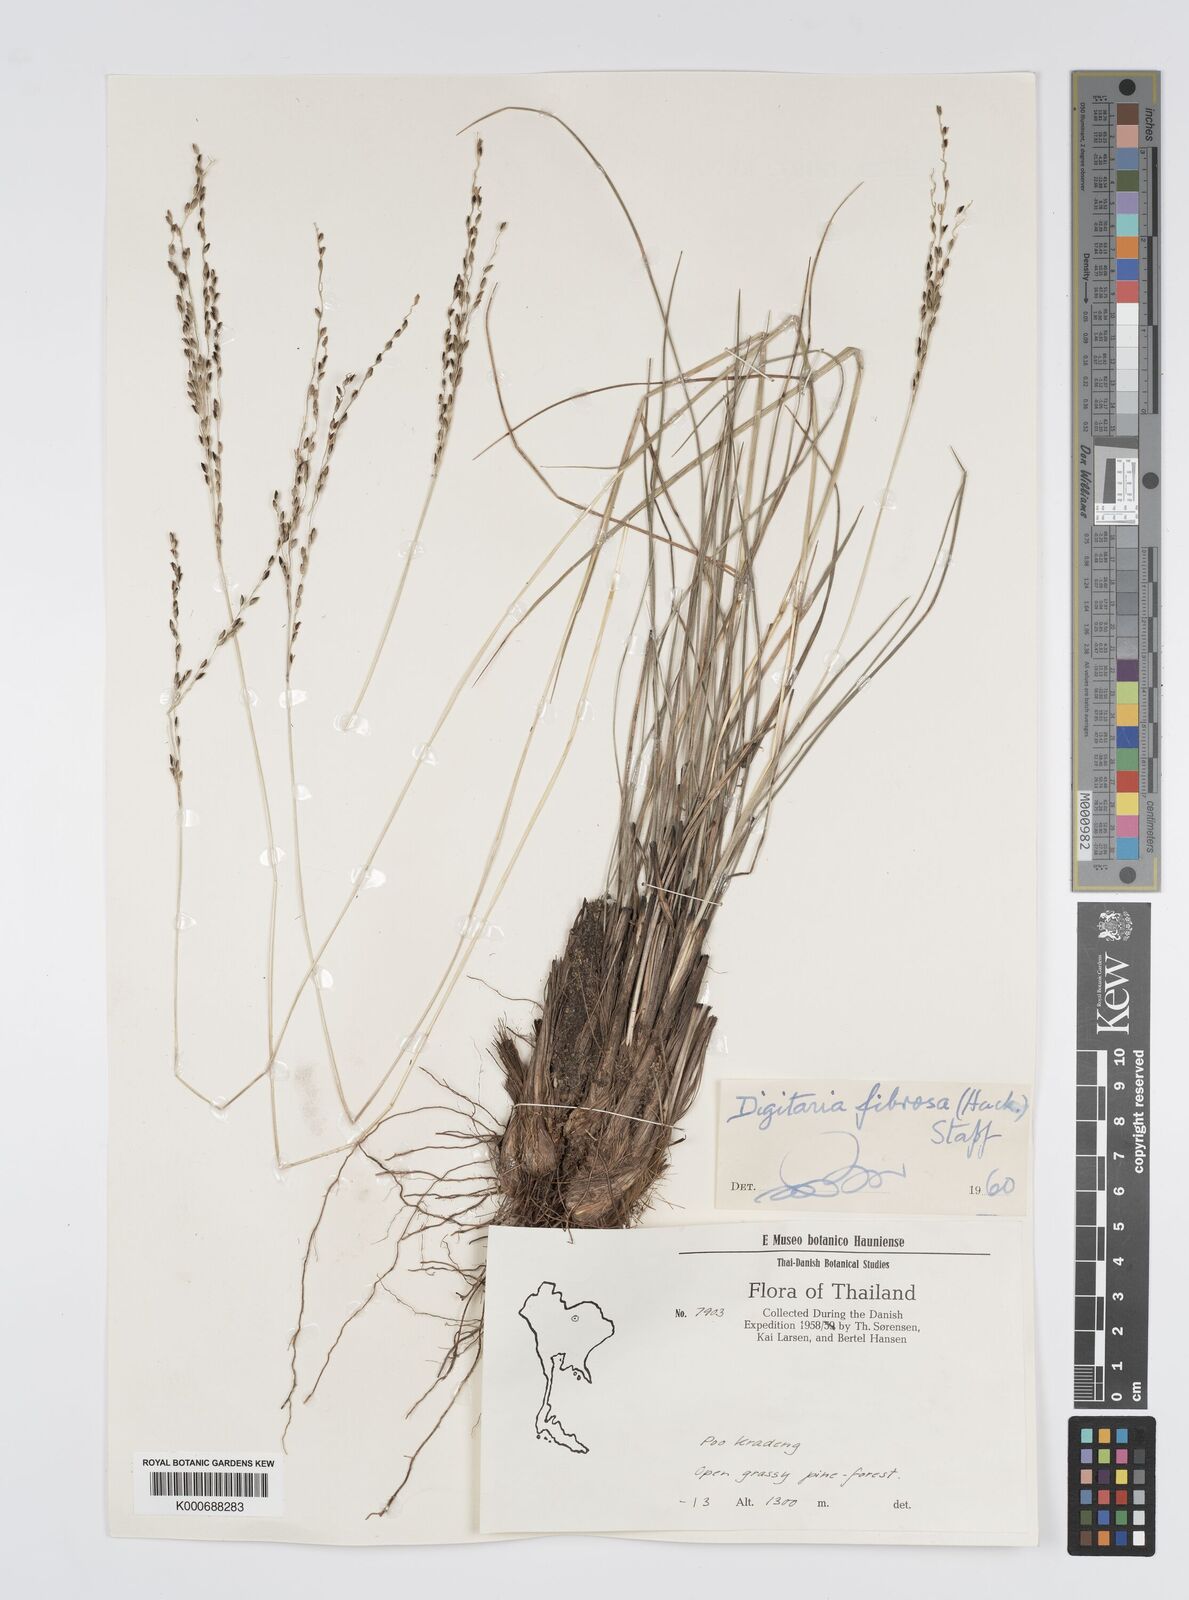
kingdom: Plantae
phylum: Tracheophyta
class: Liliopsida
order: Poales
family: Poaceae
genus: Digitaria
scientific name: Digitaria setifolia
